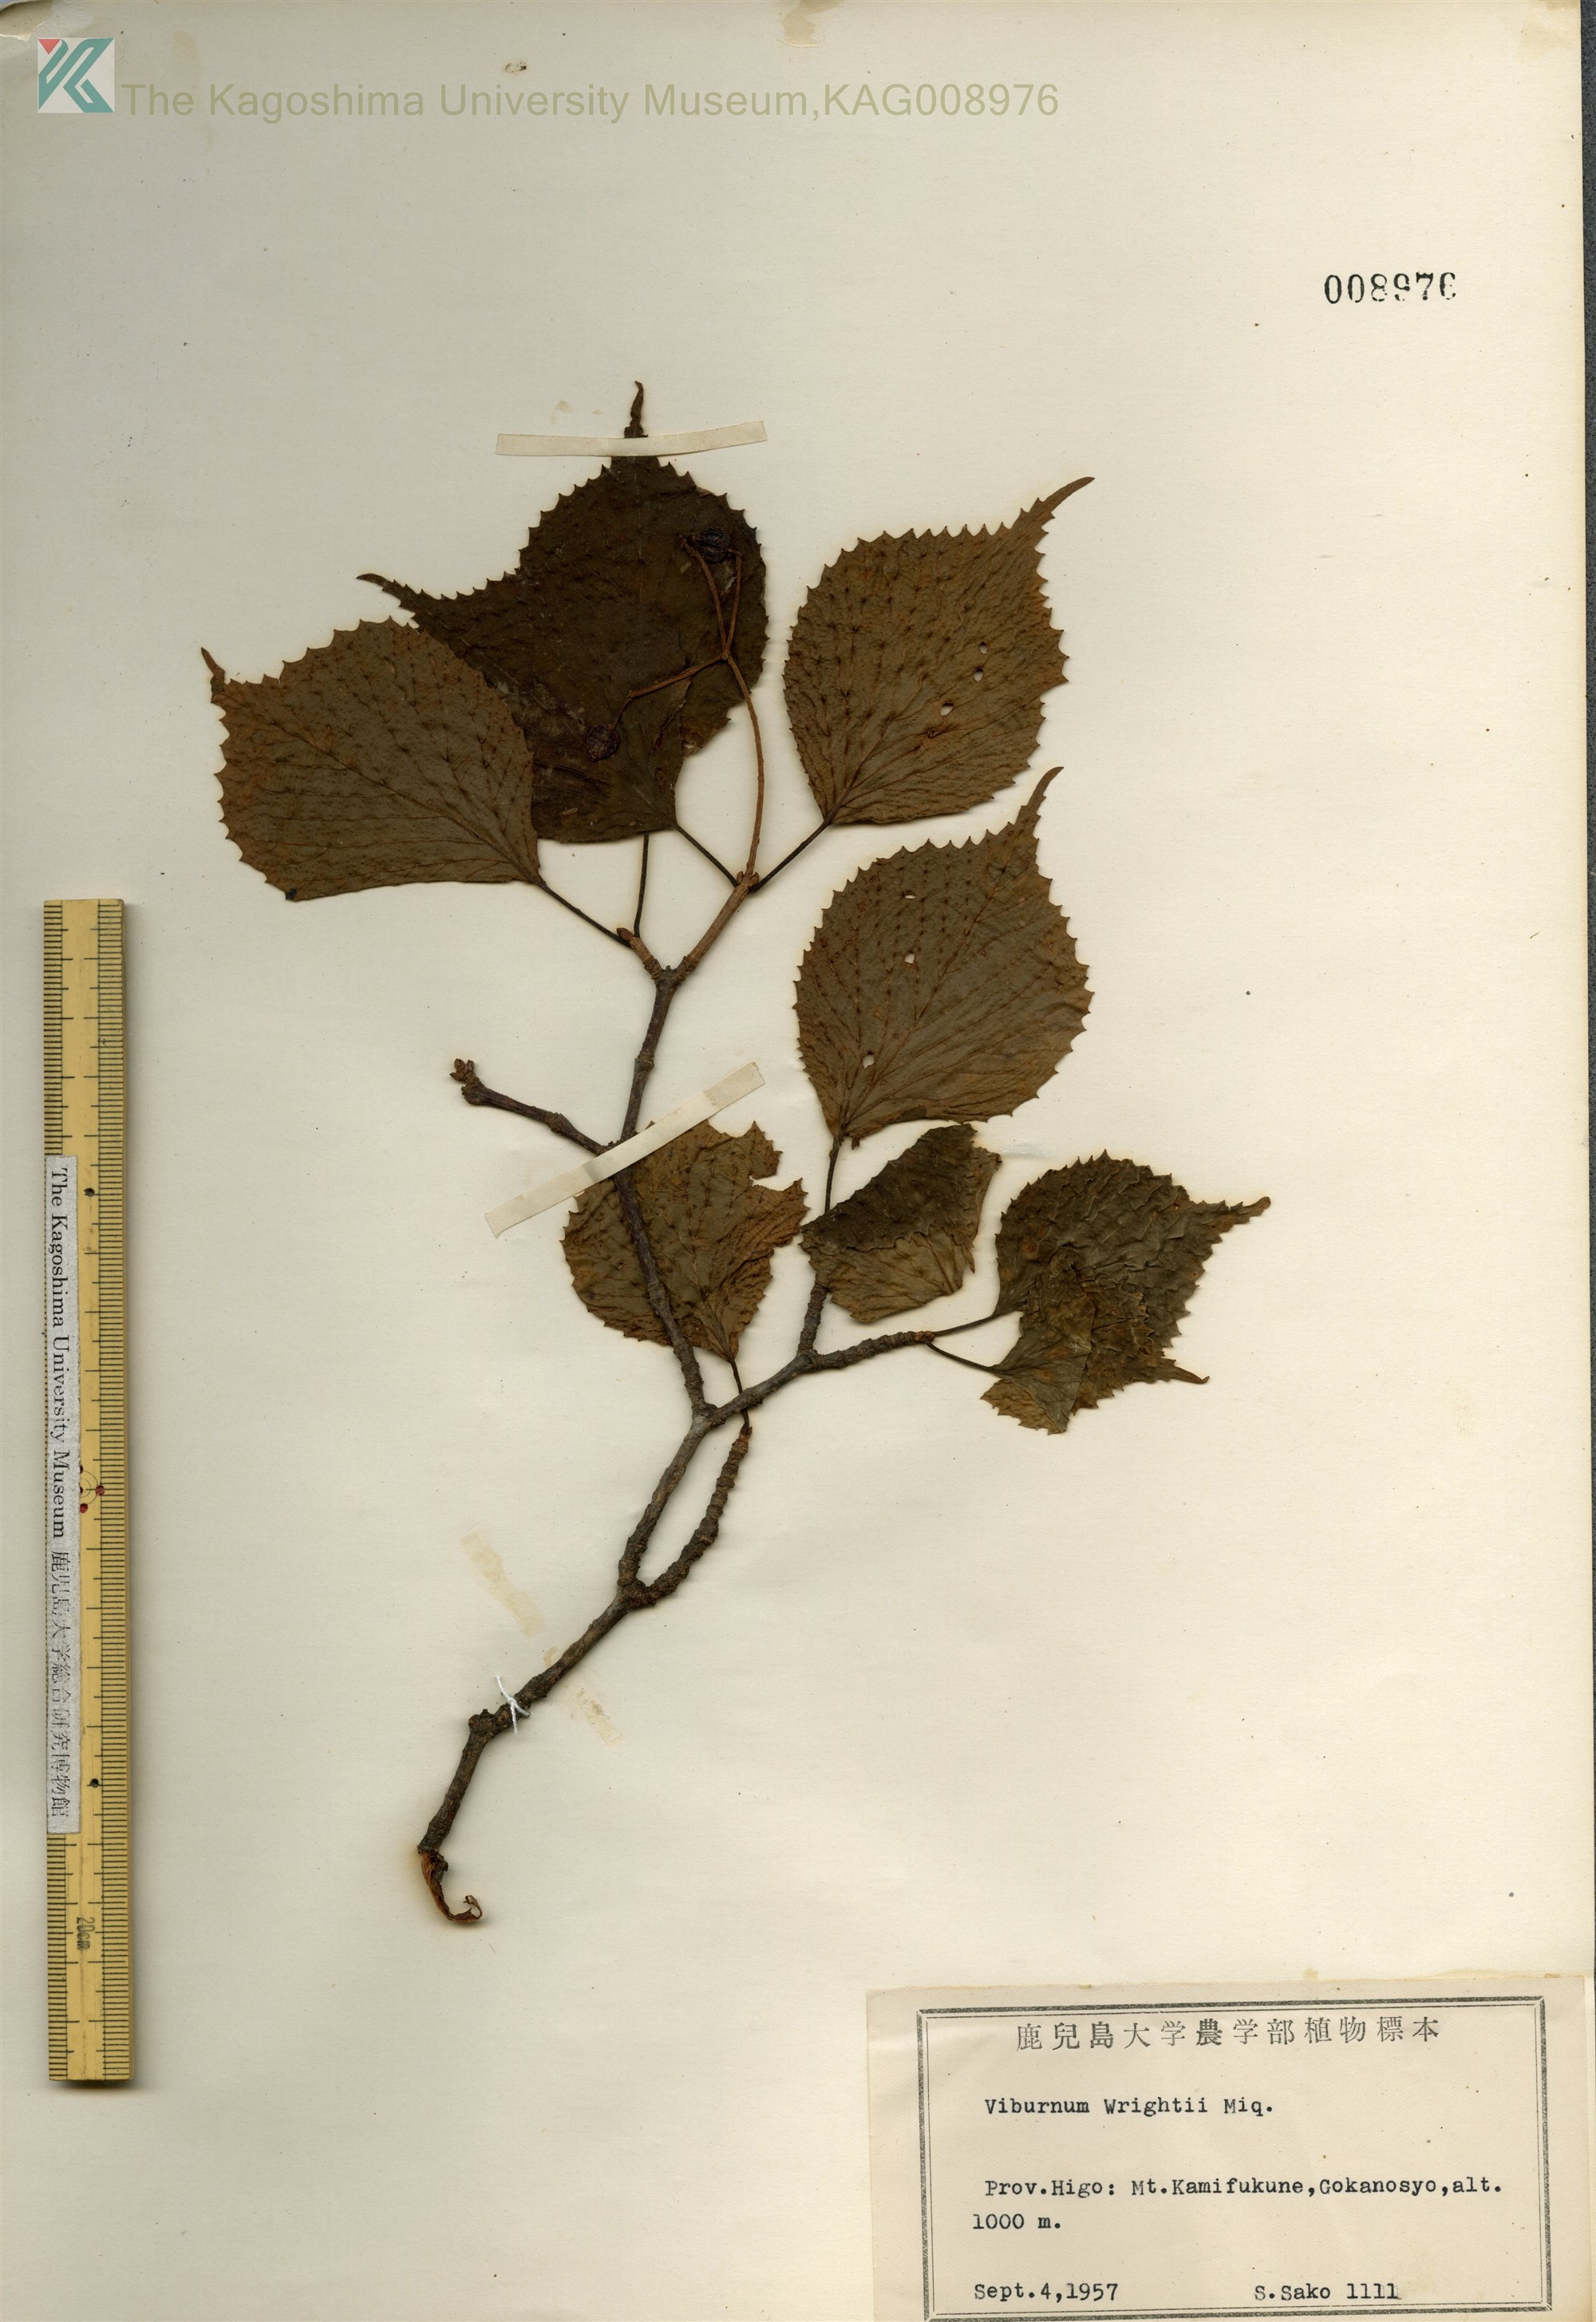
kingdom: Plantae
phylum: Tracheophyta
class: Magnoliopsida
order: Dipsacales
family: Viburnaceae
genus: Viburnum
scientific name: Viburnum wrightii
